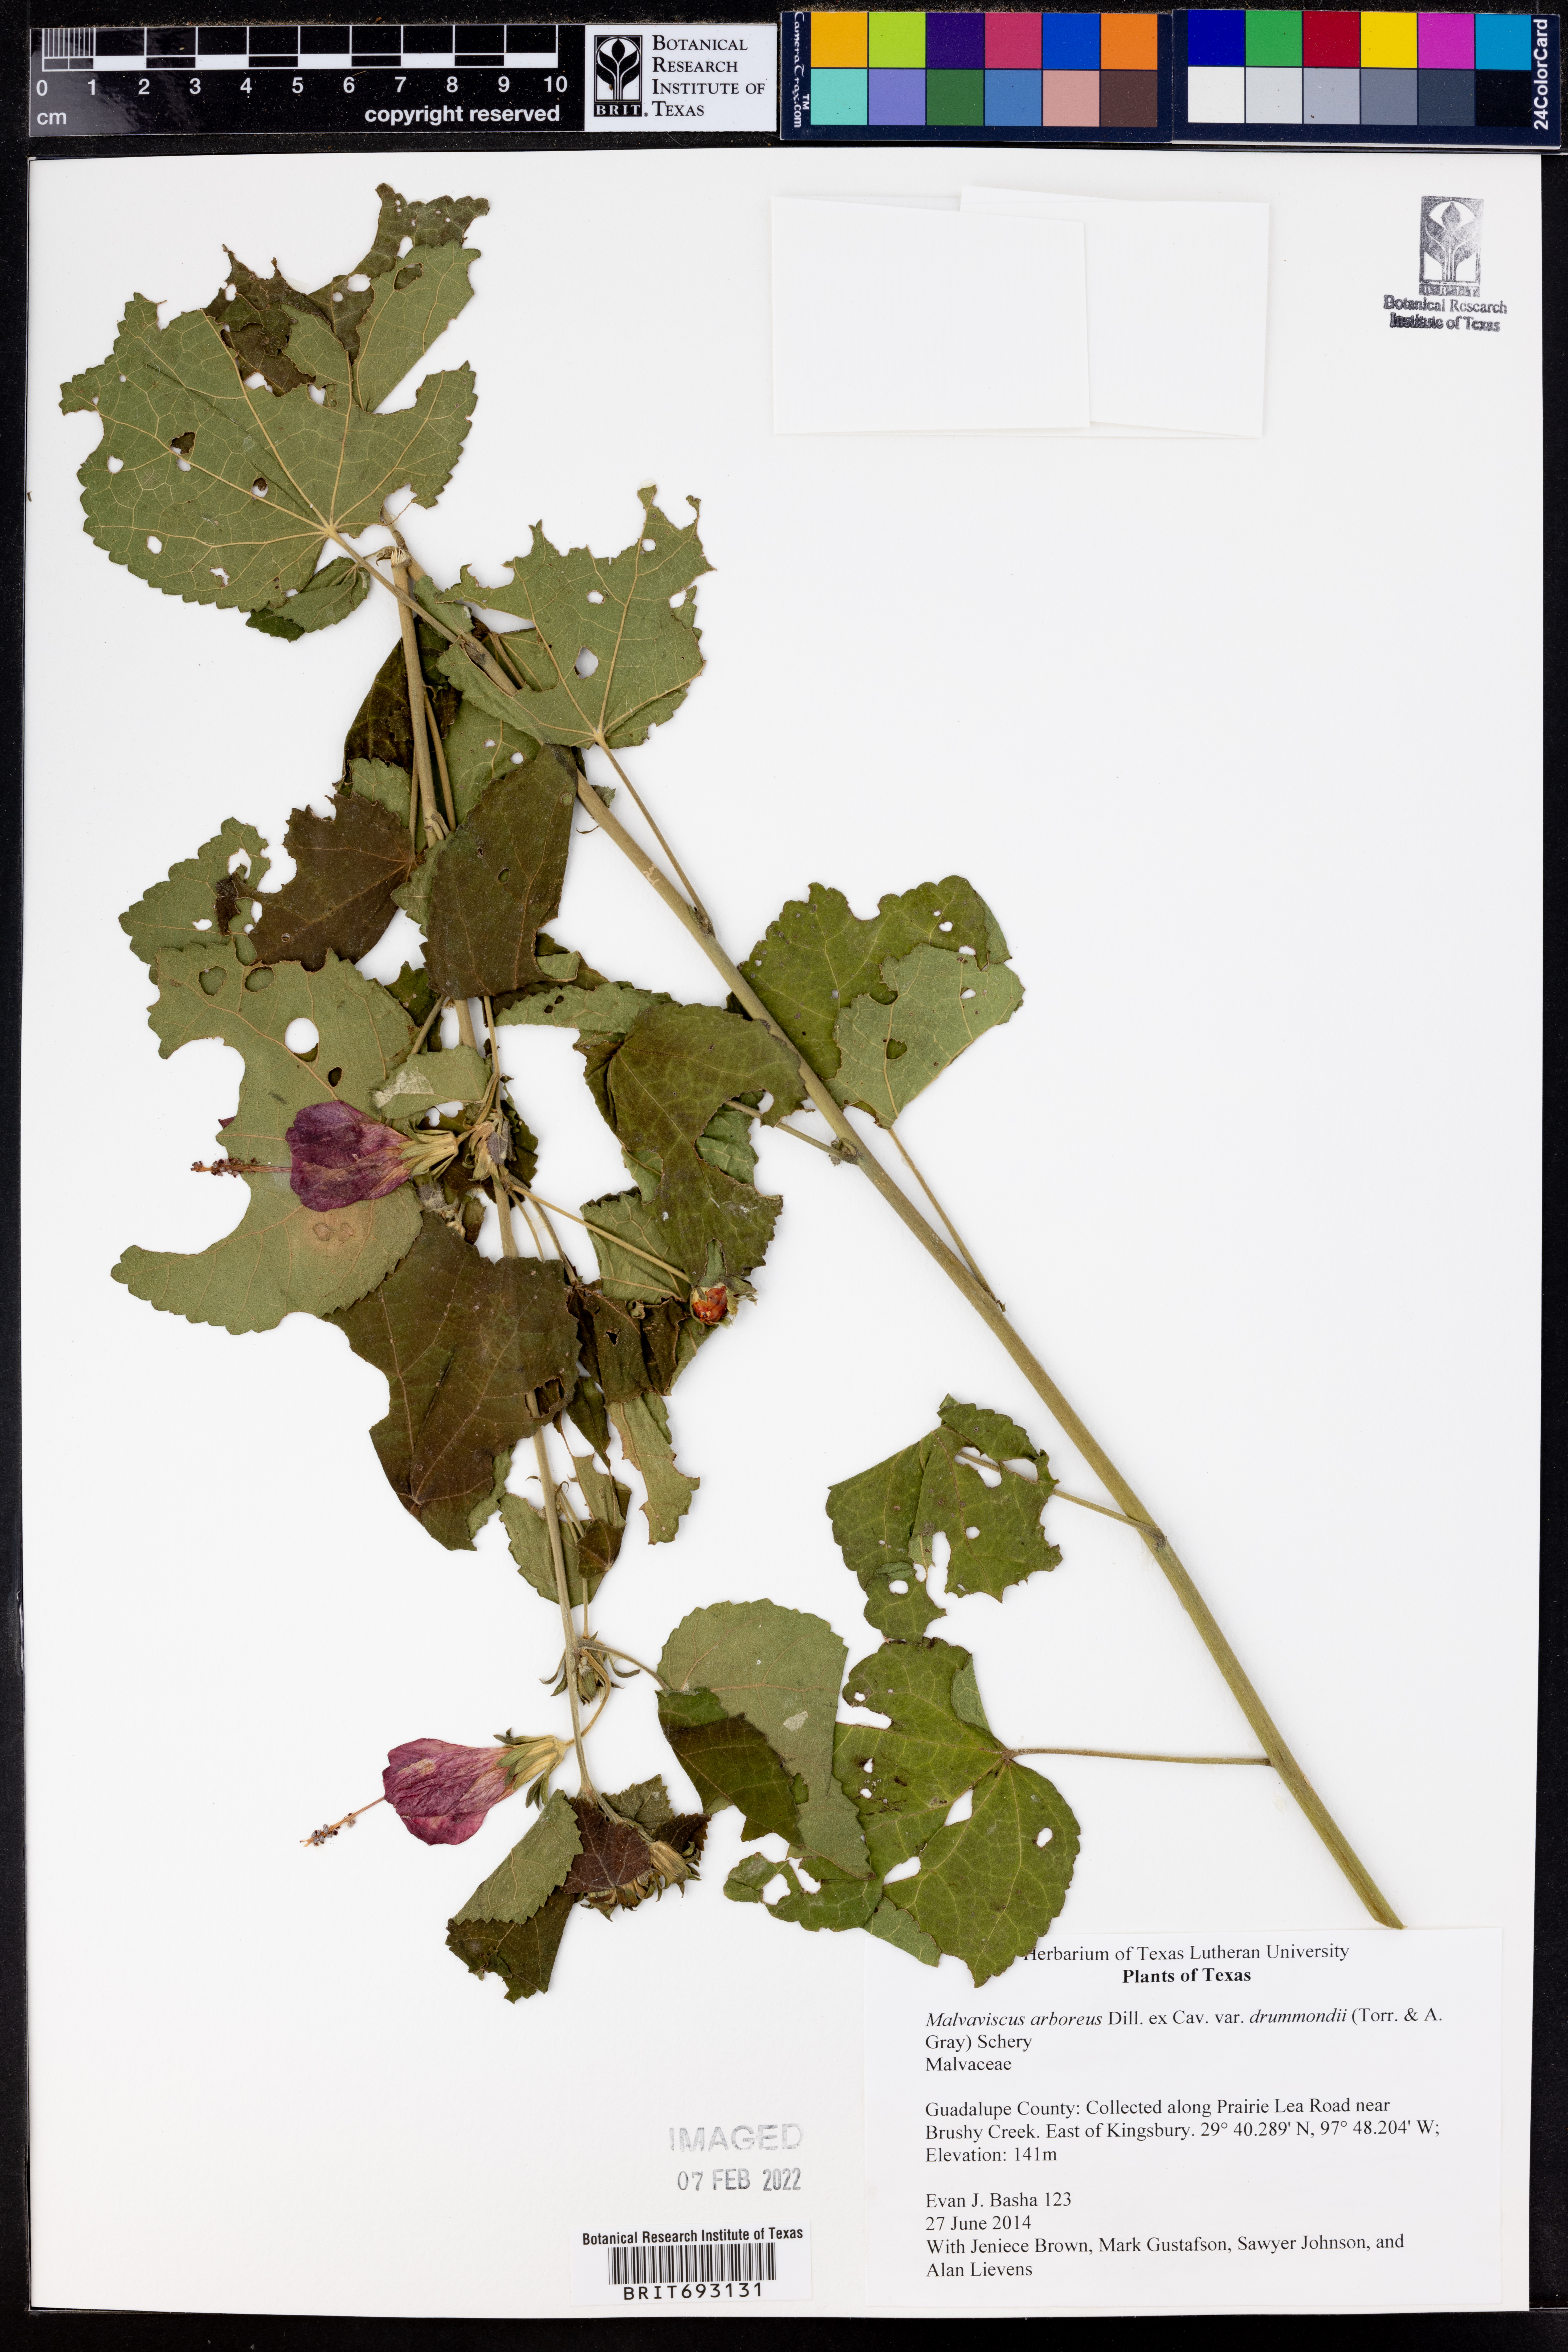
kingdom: Plantae
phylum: Tracheophyta
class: Magnoliopsida
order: Malvales
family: Malvaceae
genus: Malvaviscus
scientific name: Malvaviscus arboreus
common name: Wax mallow
